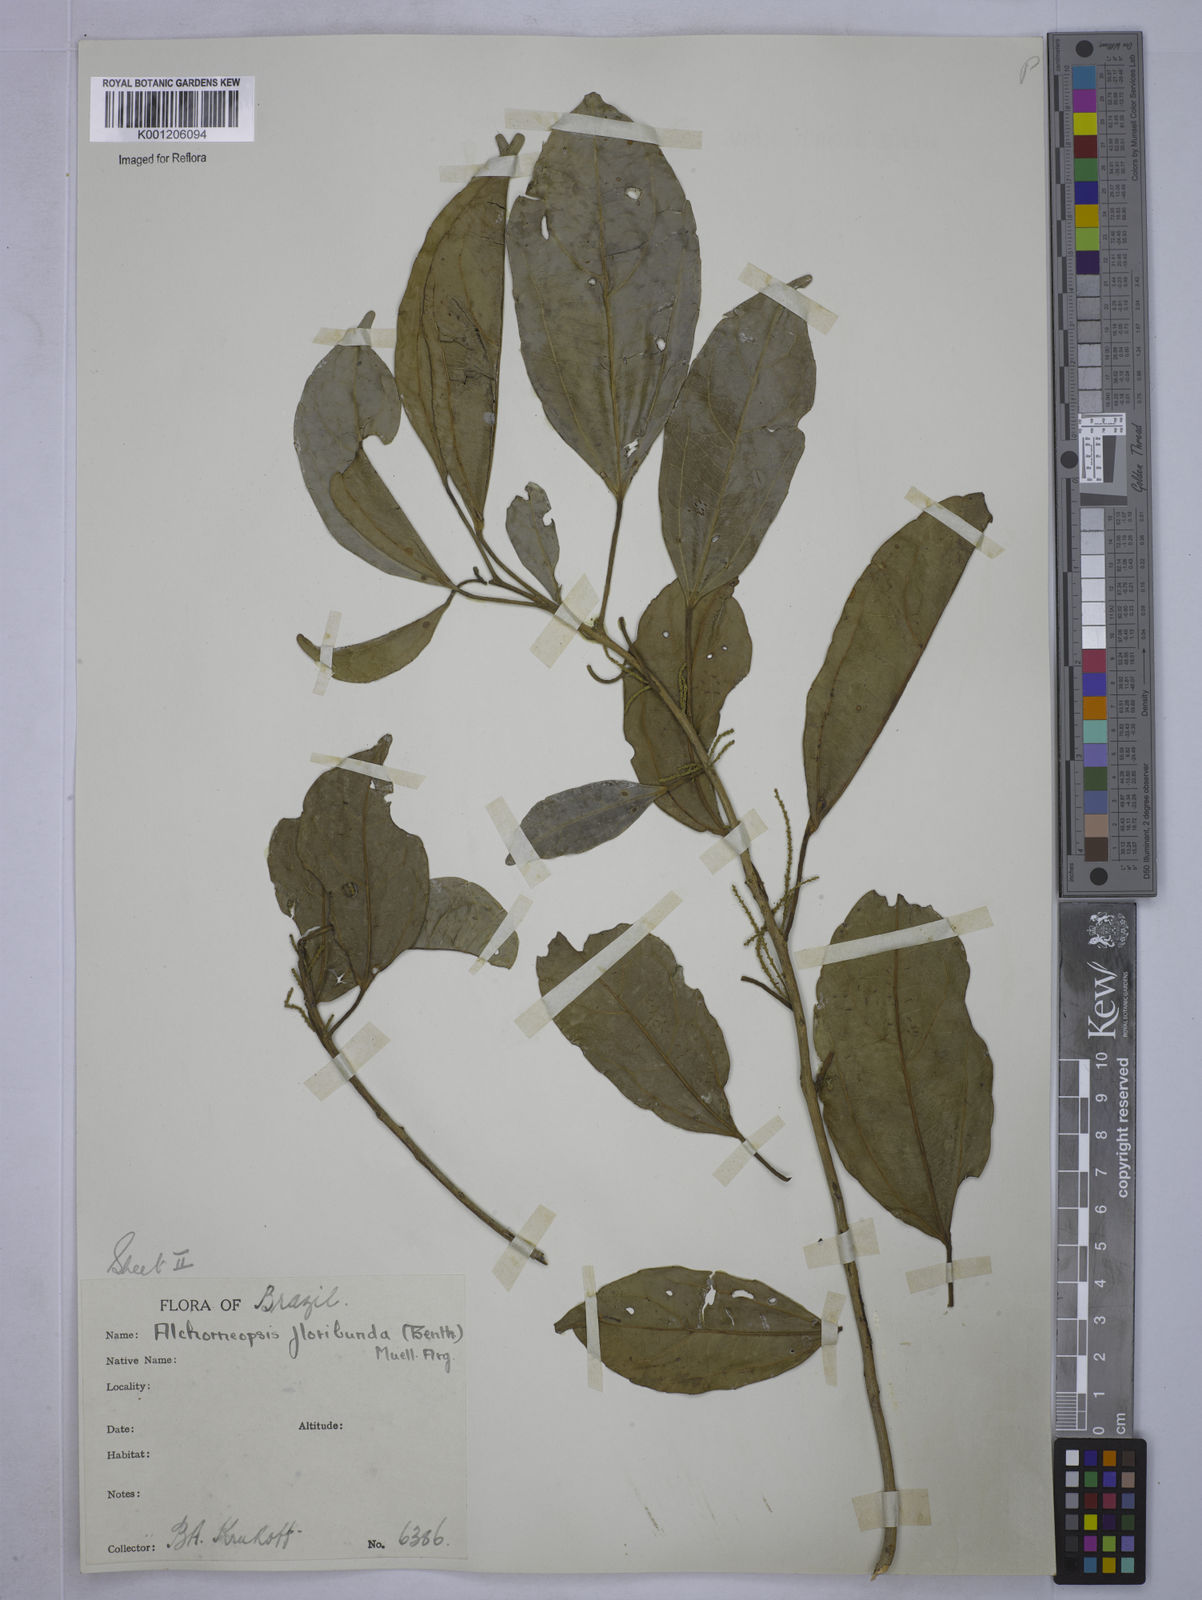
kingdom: Plantae
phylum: Tracheophyta
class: Magnoliopsida
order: Malpighiales
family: Euphorbiaceae
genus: Alchorneopsis
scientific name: Alchorneopsis
